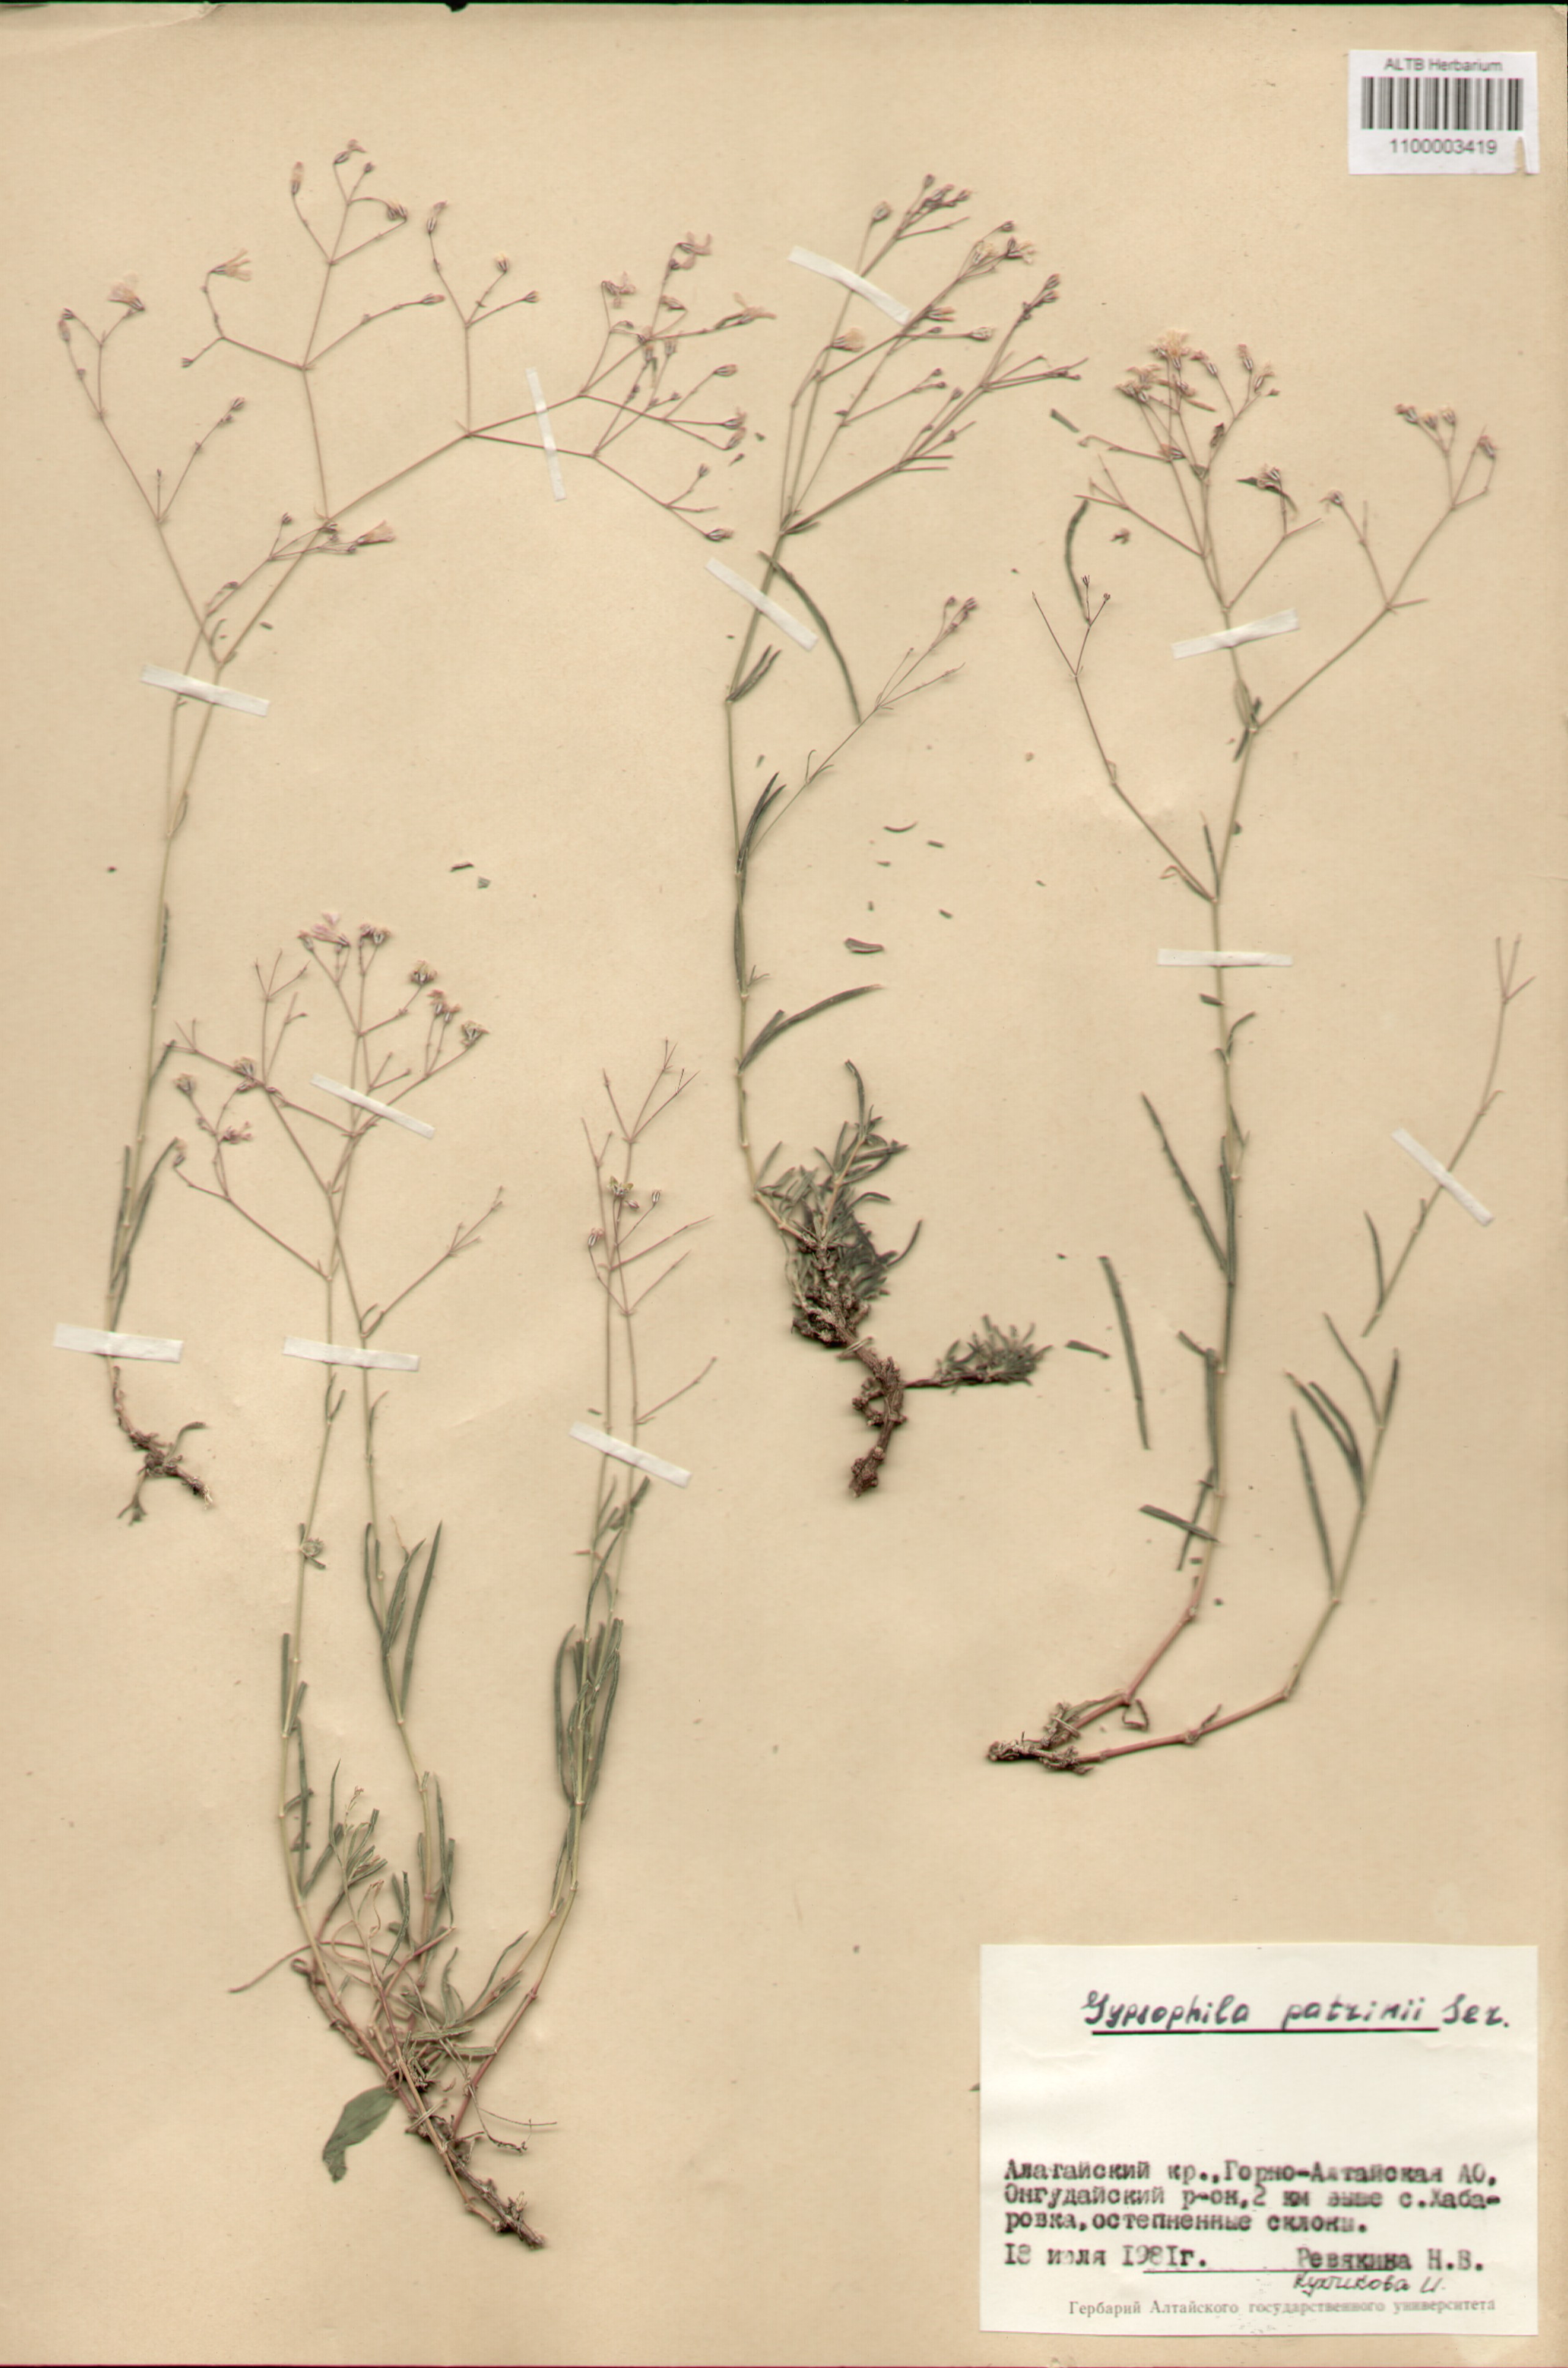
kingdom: Plantae
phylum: Tracheophyta
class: Magnoliopsida
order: Caryophyllales
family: Caryophyllaceae
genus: Gypsophila
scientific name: Gypsophila patrinii
